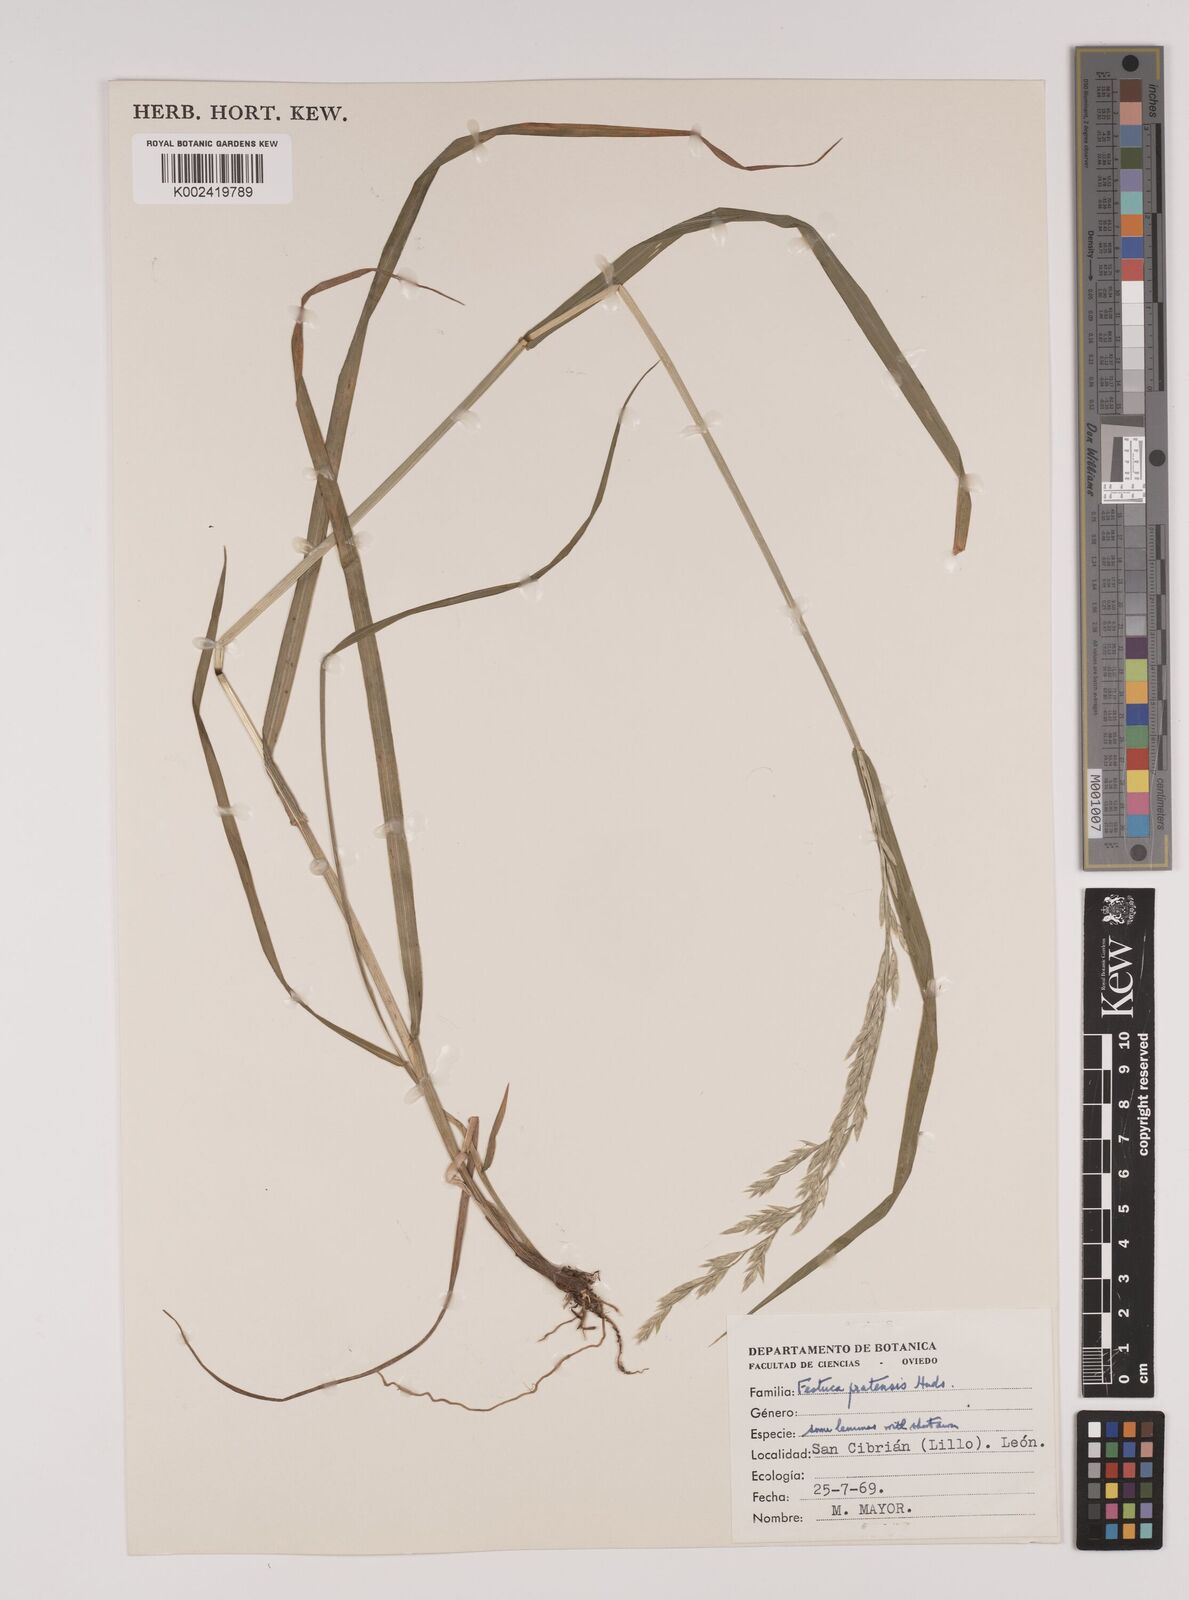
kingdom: Plantae
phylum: Tracheophyta
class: Liliopsida
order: Poales
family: Poaceae
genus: Festuca
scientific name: Festuca
